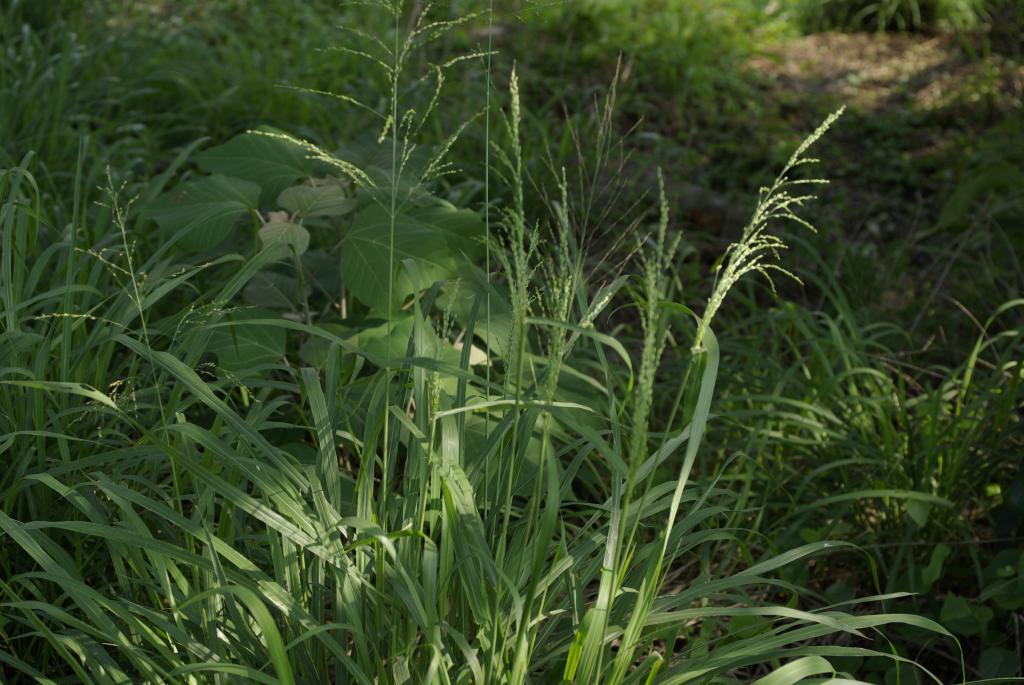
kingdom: Plantae
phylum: Tracheophyta
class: Liliopsida
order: Poales
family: Poaceae
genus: Megathyrsus
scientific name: Megathyrsus maximus
